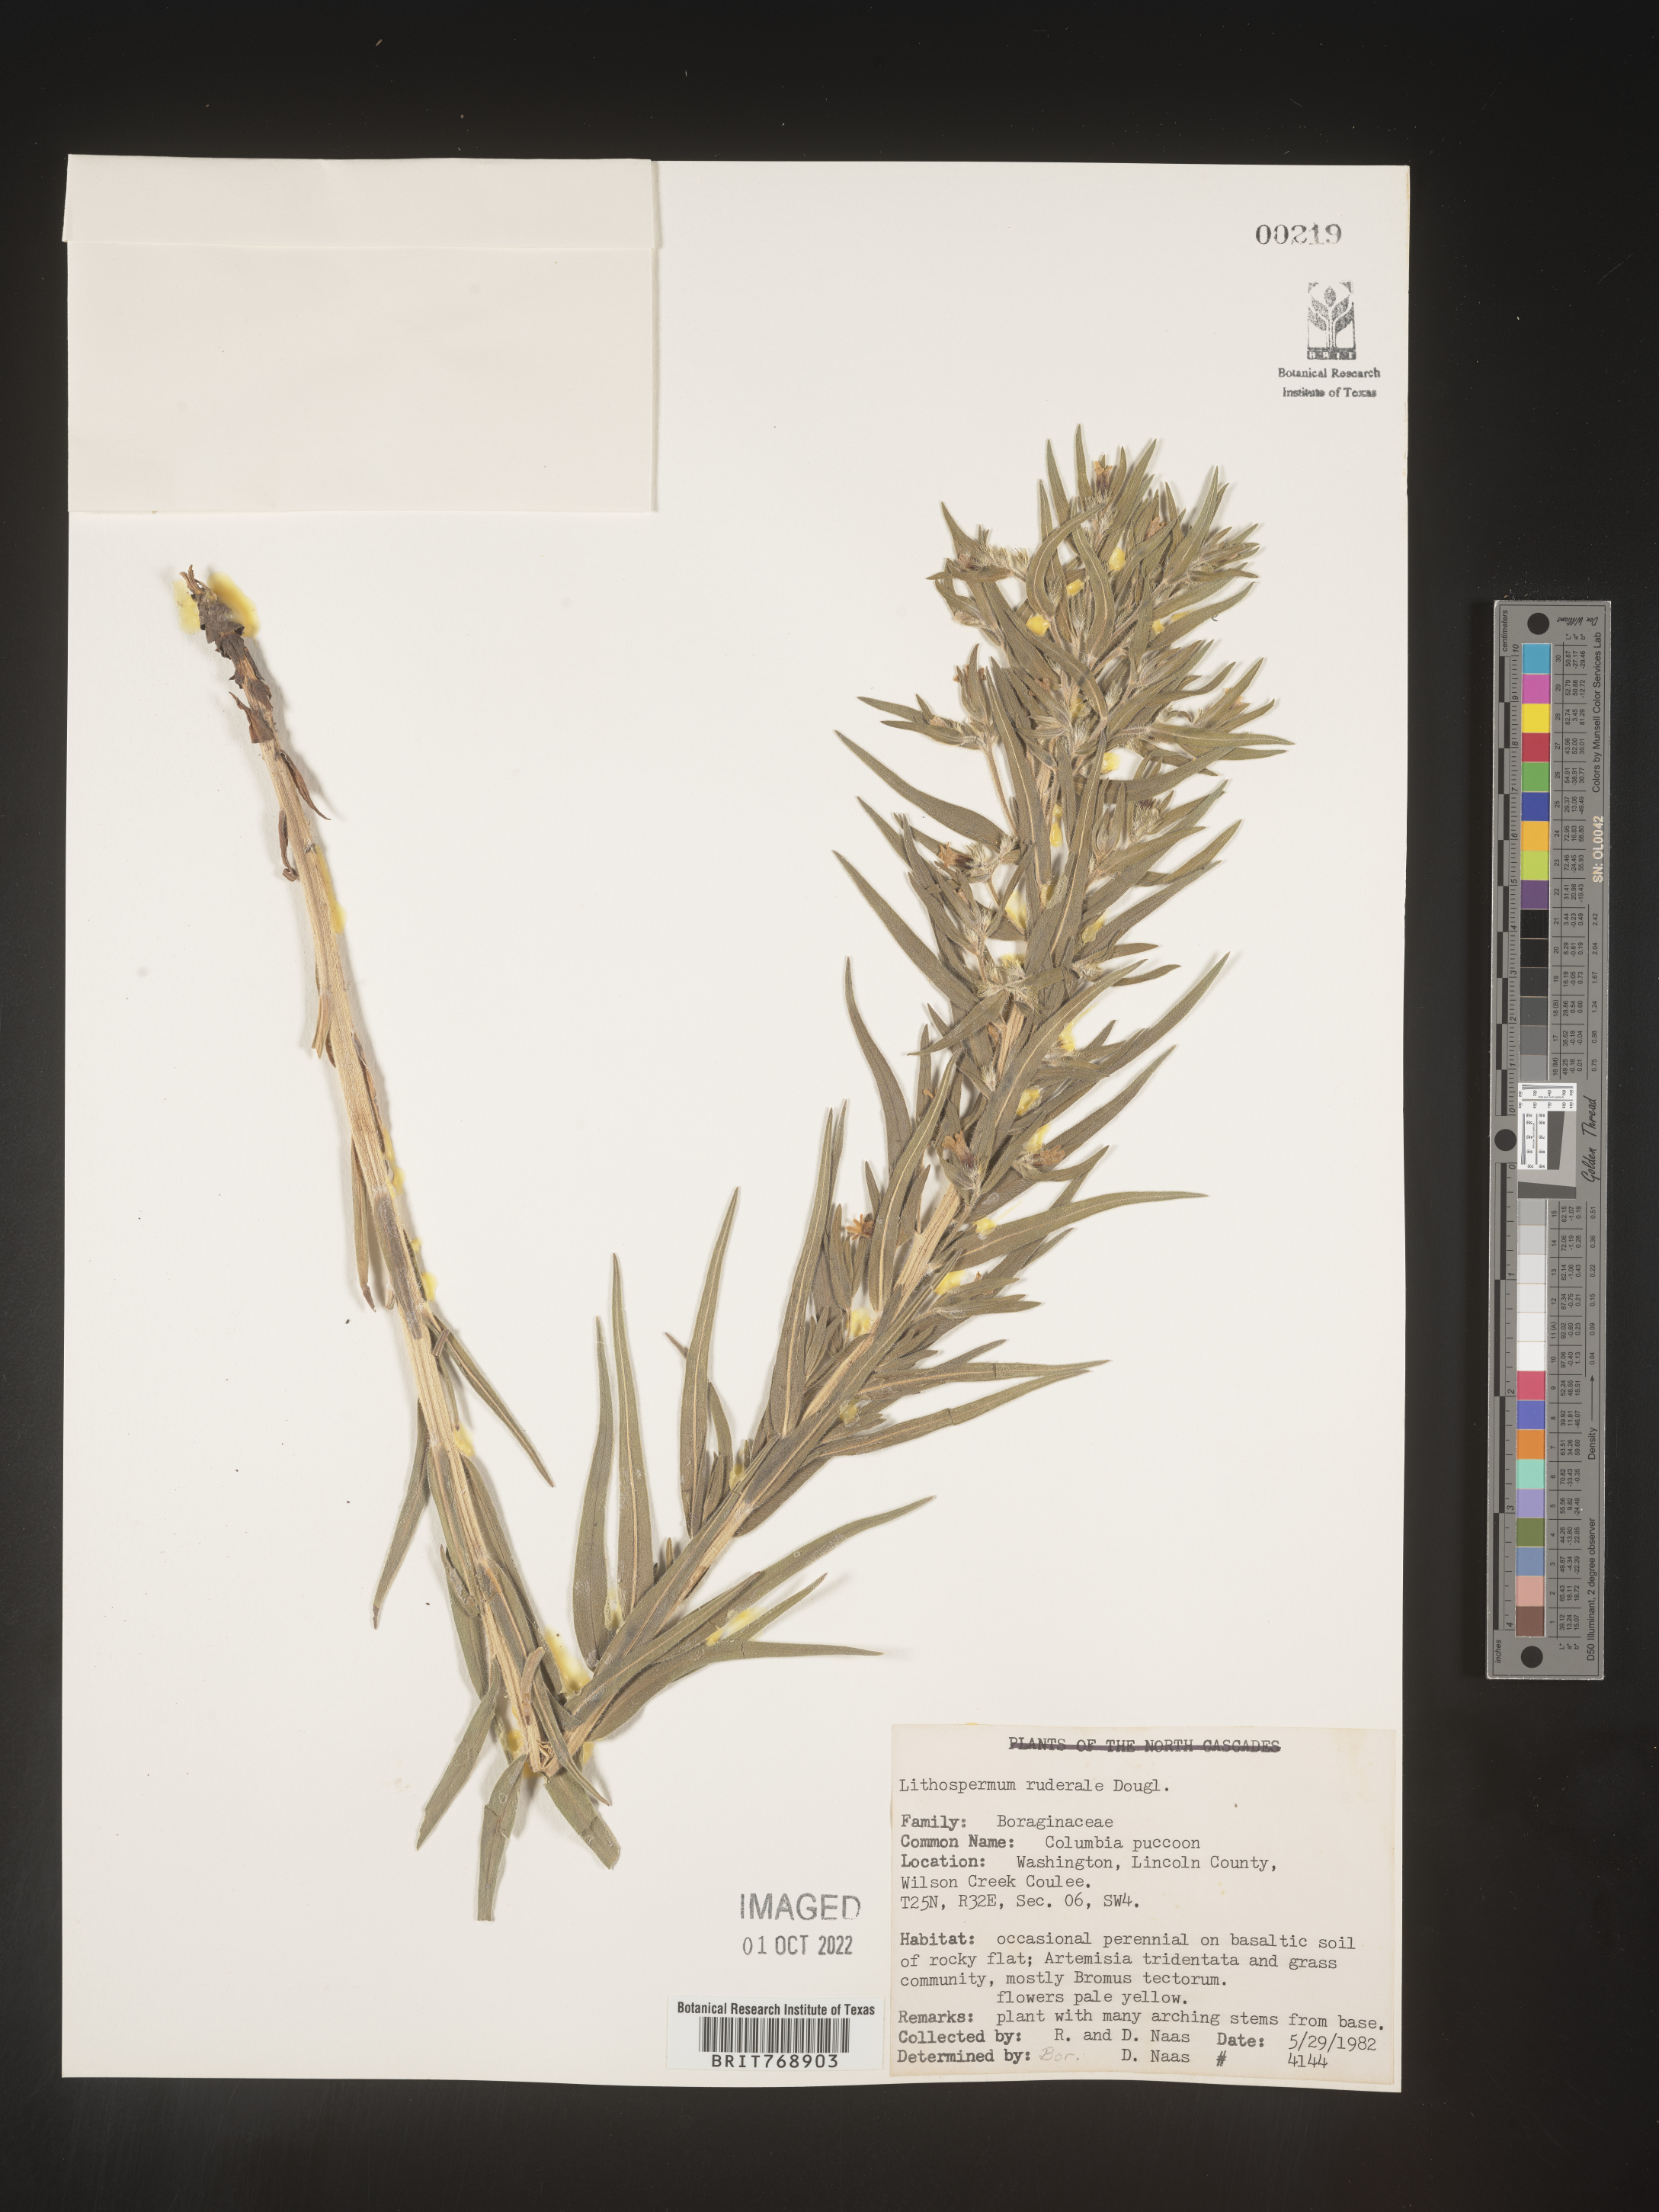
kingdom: Plantae
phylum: Tracheophyta
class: Magnoliopsida
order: Boraginales
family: Boraginaceae
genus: Lithospermum
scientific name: Lithospermum
